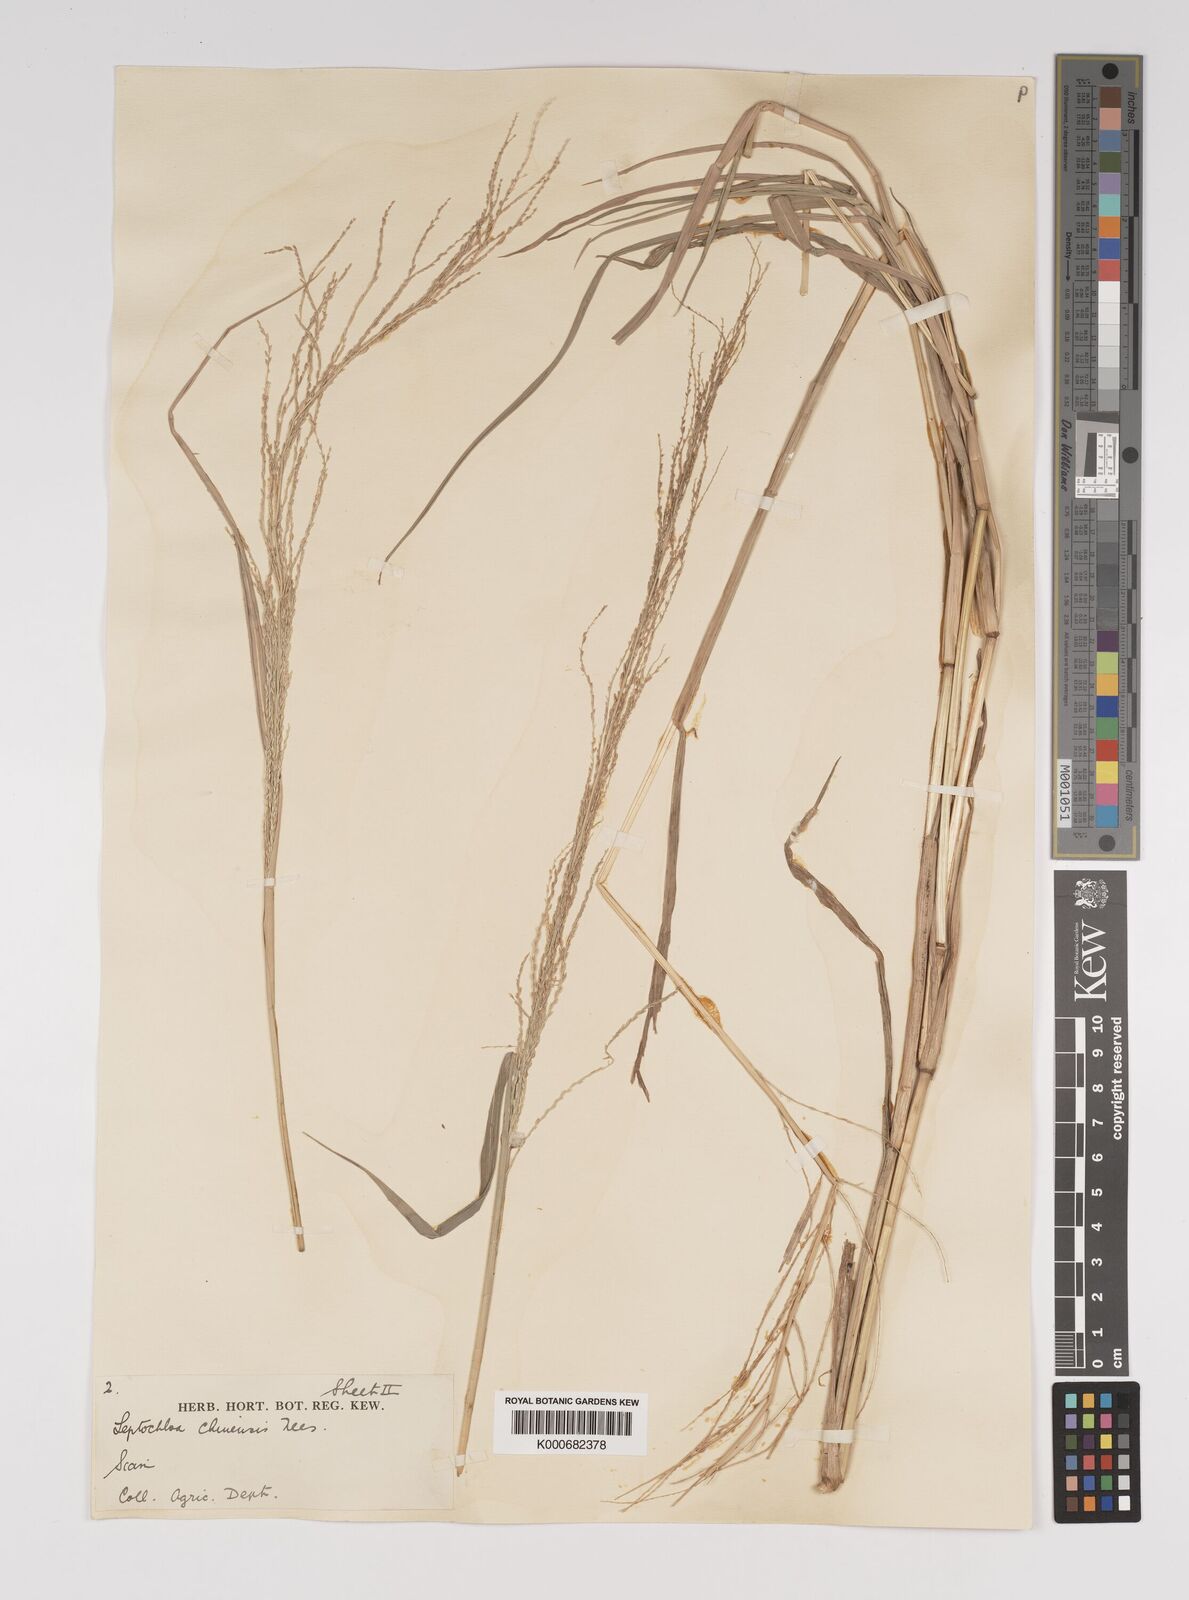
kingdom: Plantae
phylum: Tracheophyta
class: Liliopsida
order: Poales
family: Poaceae
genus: Leptochloa
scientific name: Leptochloa chinensis
